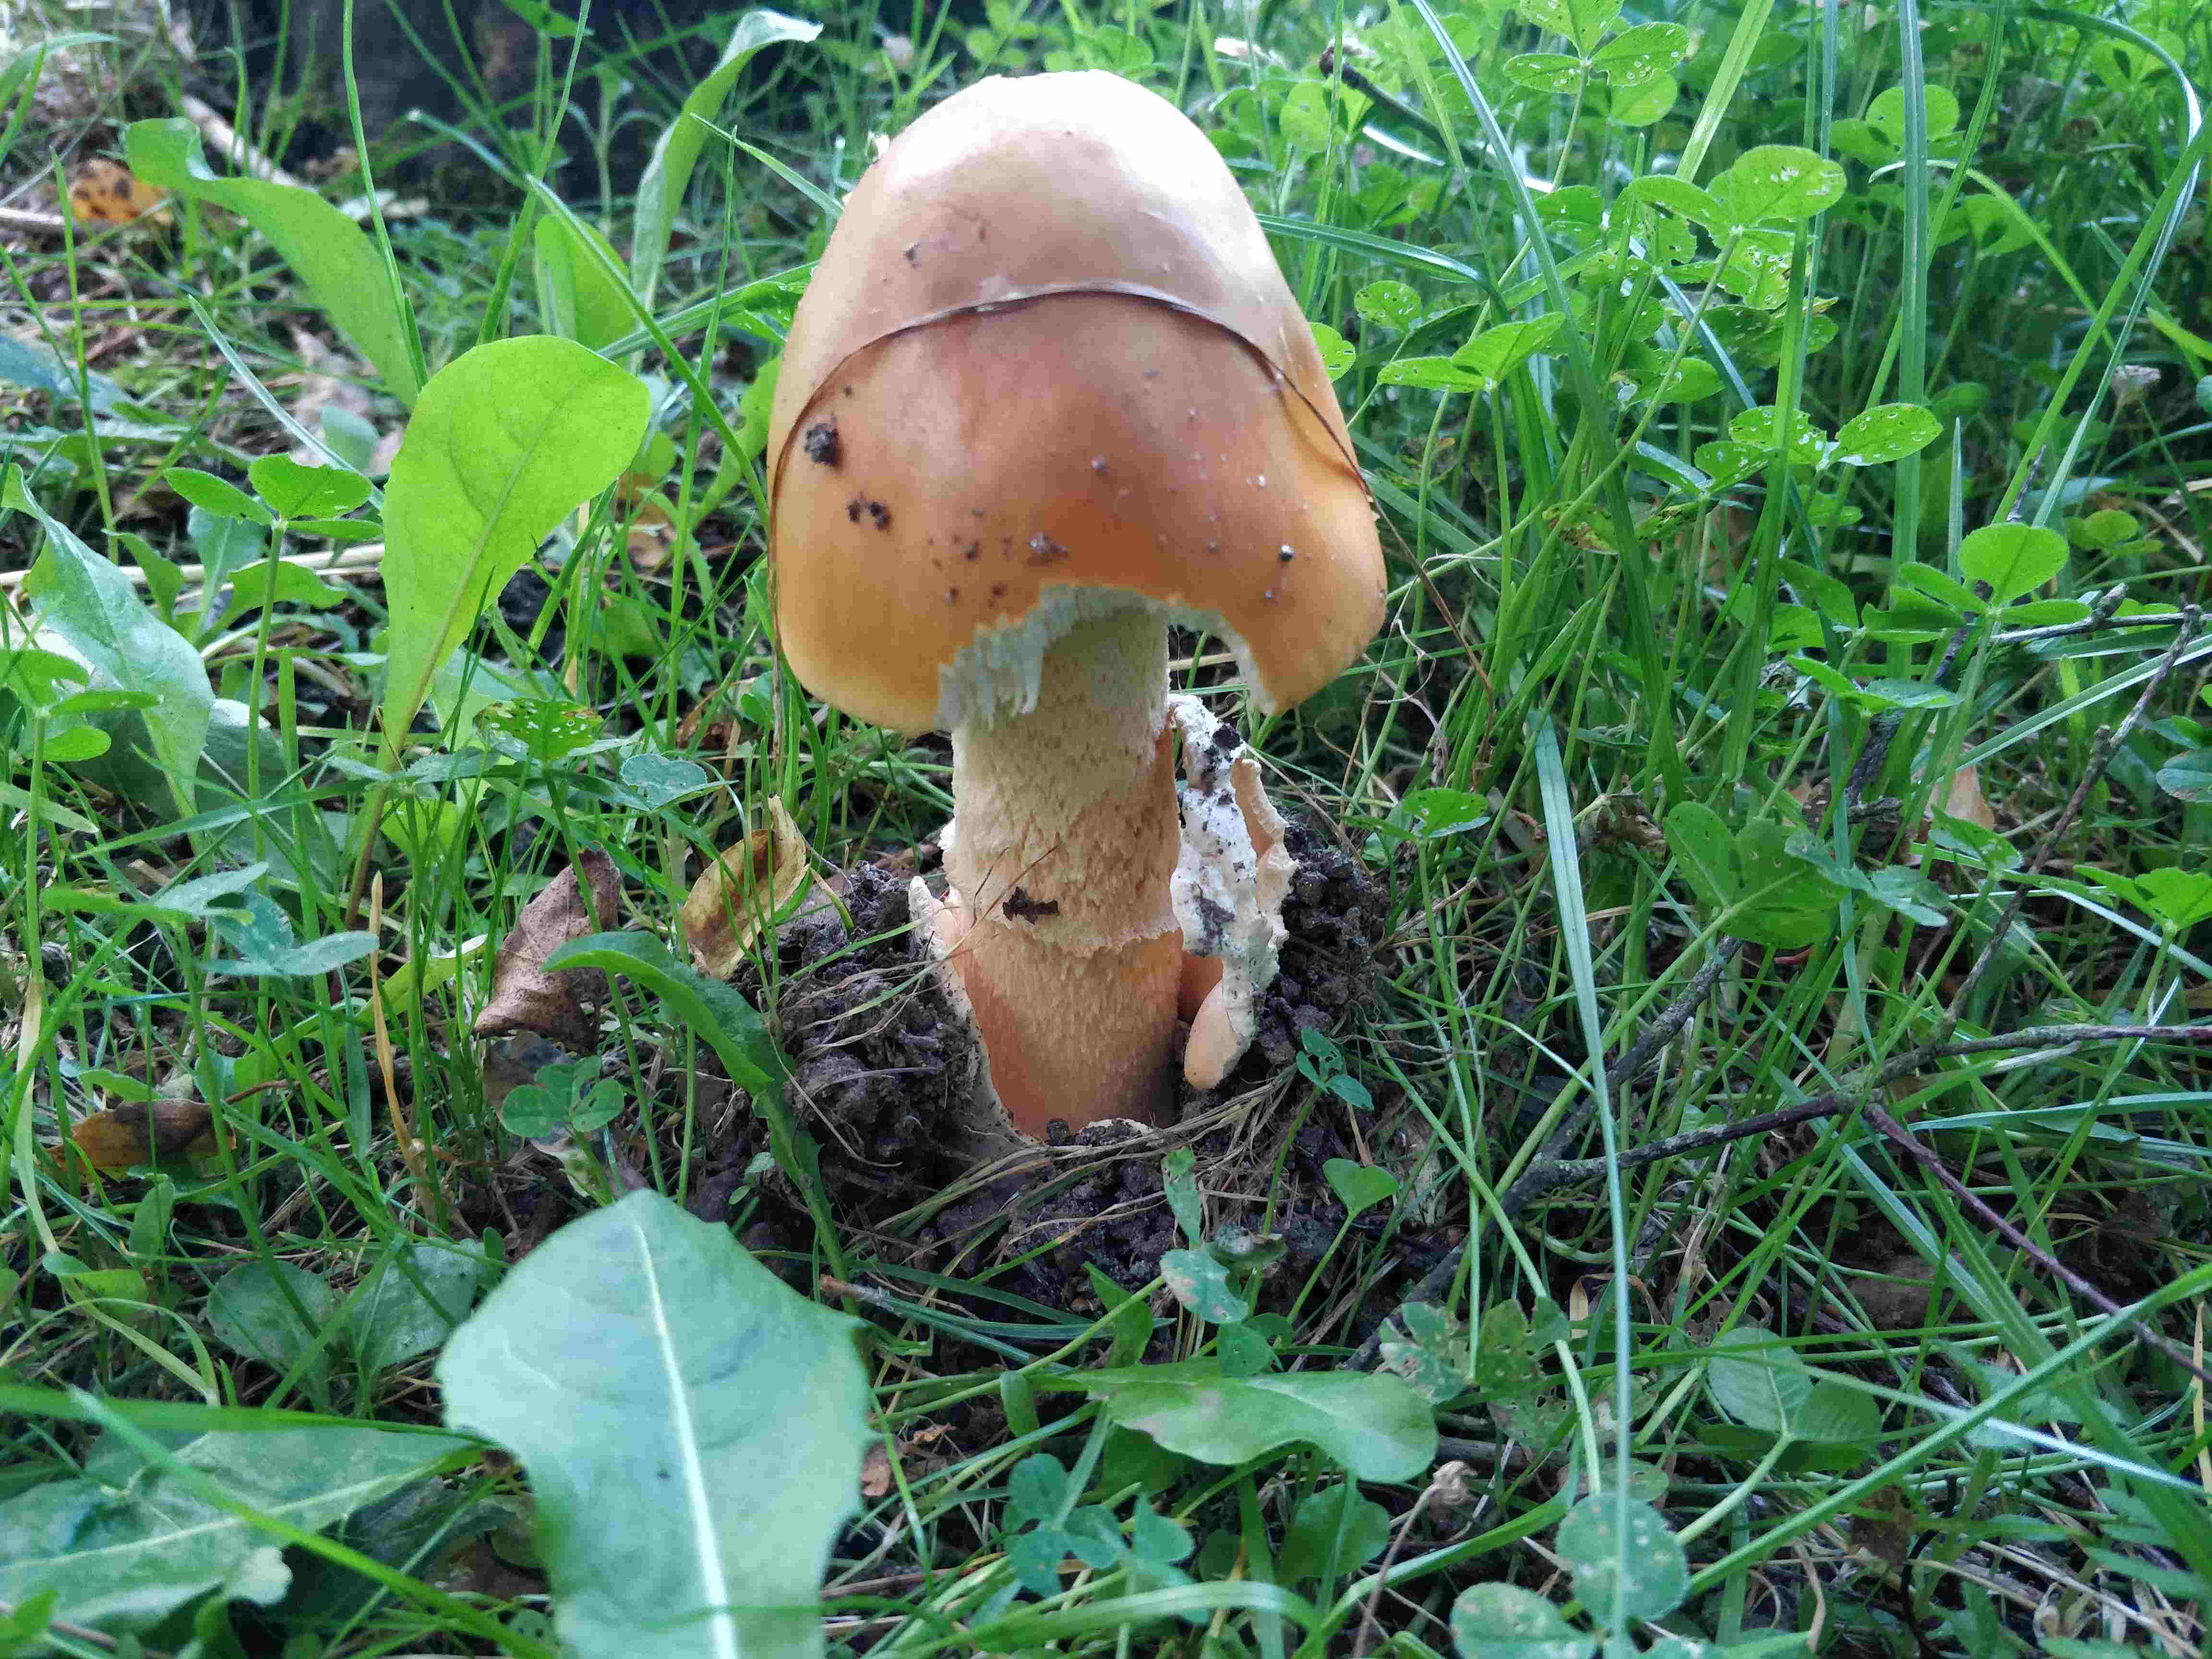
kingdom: Fungi
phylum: Basidiomycota
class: Agaricomycetes
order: Agaricales
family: Amanitaceae
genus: Amanita
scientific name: Amanita fulva
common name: brun kam-fluesvamp
